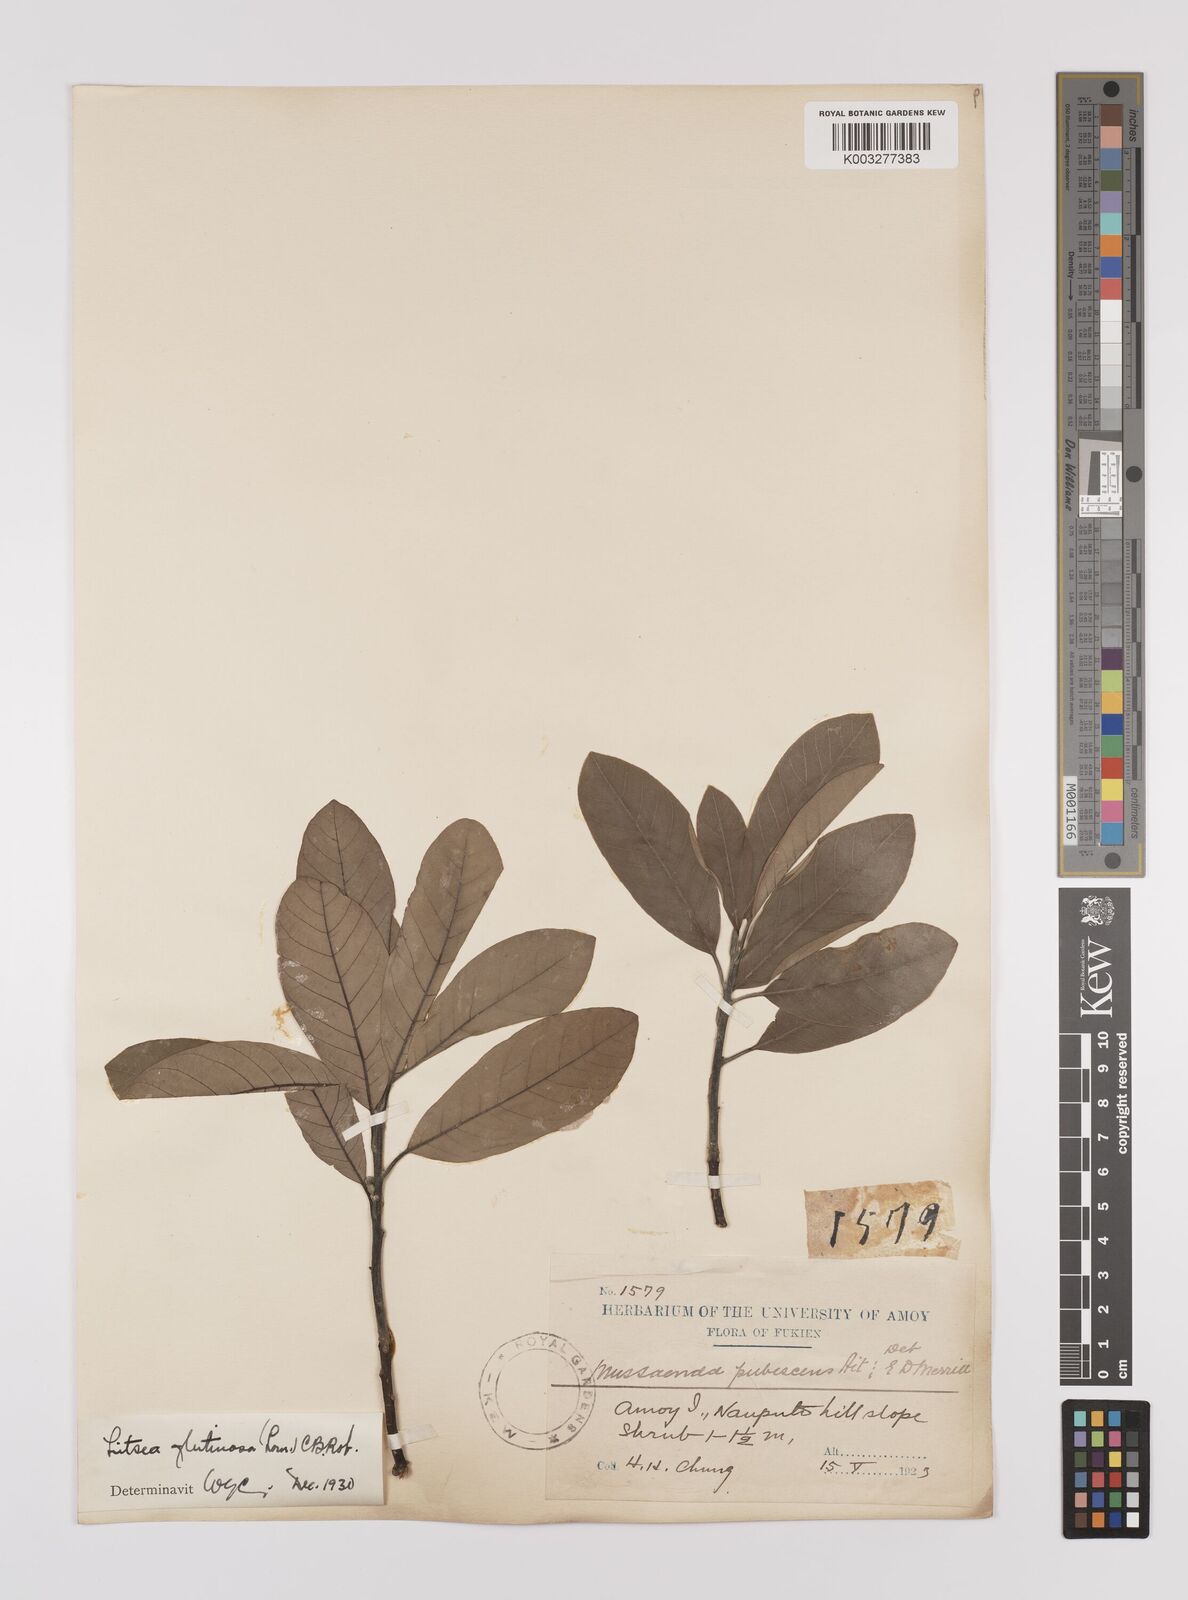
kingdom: Plantae
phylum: Tracheophyta
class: Magnoliopsida
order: Laurales
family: Lauraceae
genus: Litsea
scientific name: Litsea glutinosa
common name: Indian-laurel
